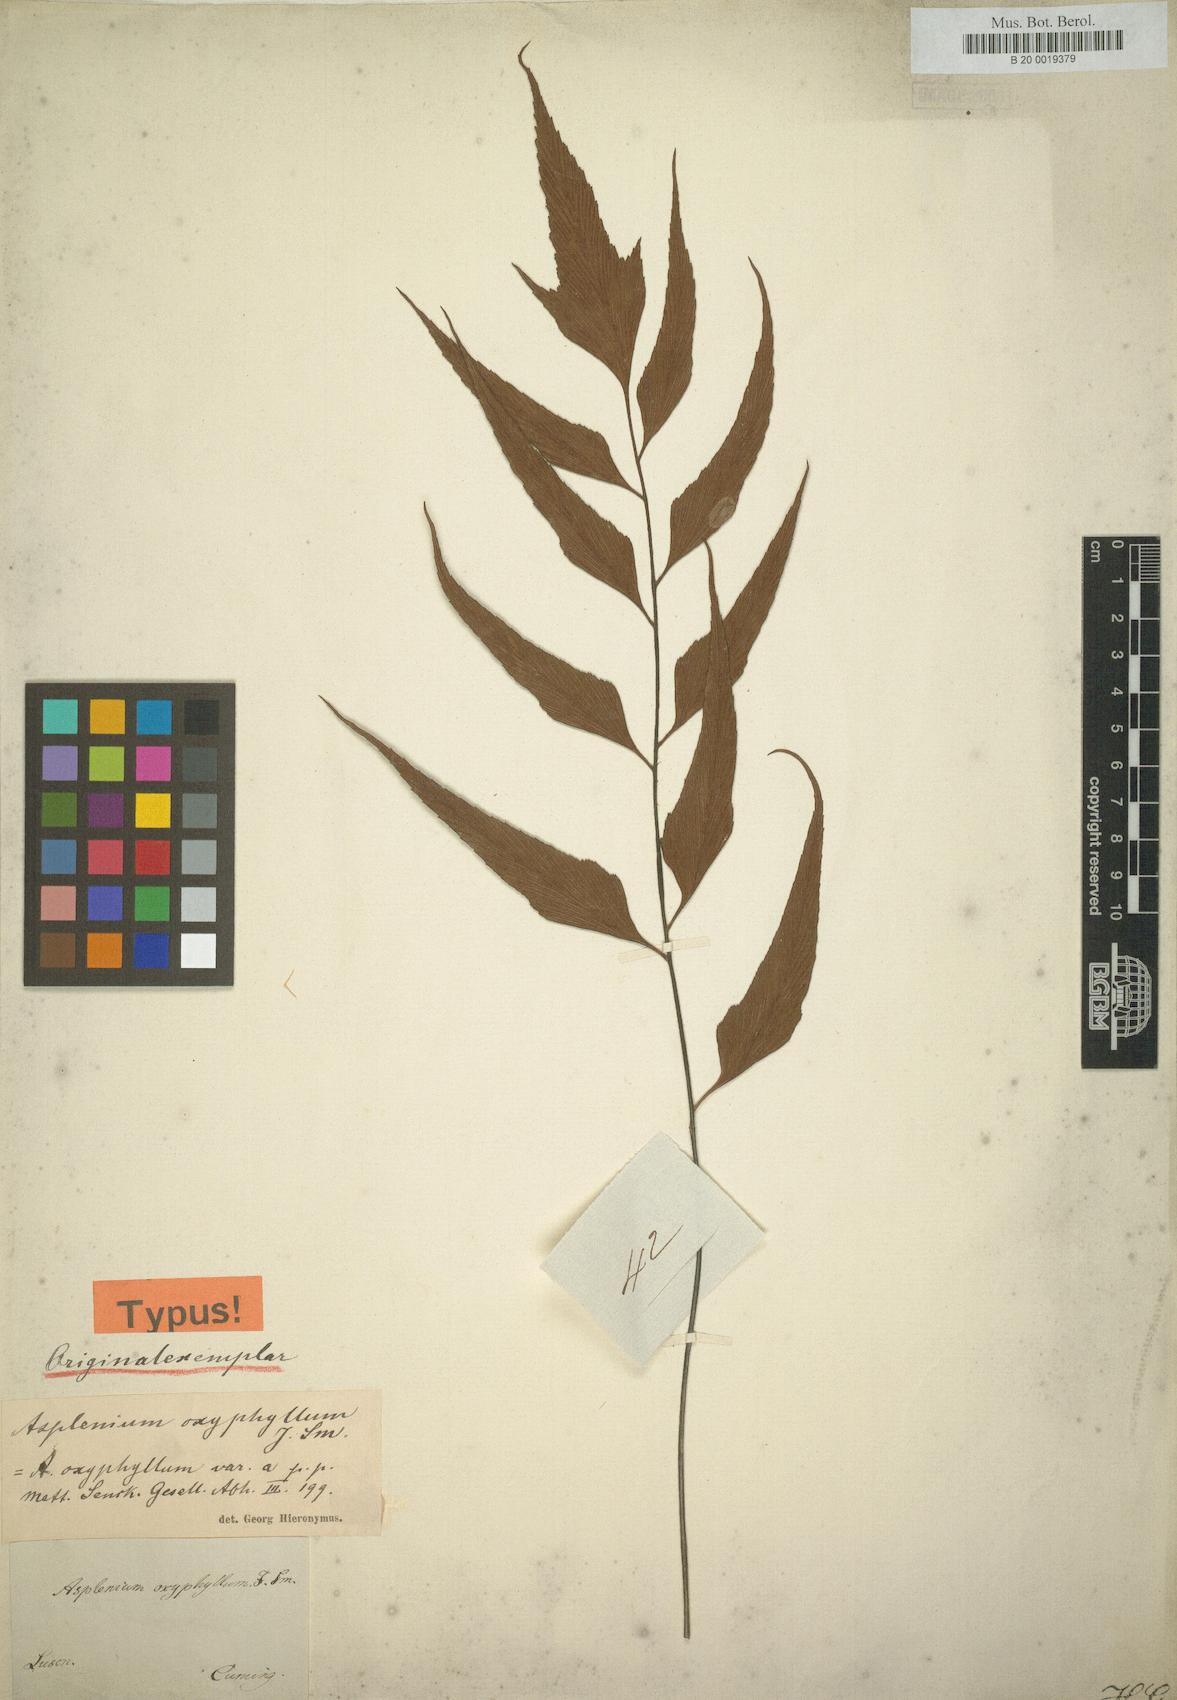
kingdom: Plantae
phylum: Tracheophyta
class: Polypodiopsida
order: Polypodiales
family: Athyriaceae
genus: Athyrium
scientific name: Athyrium puncticaule
